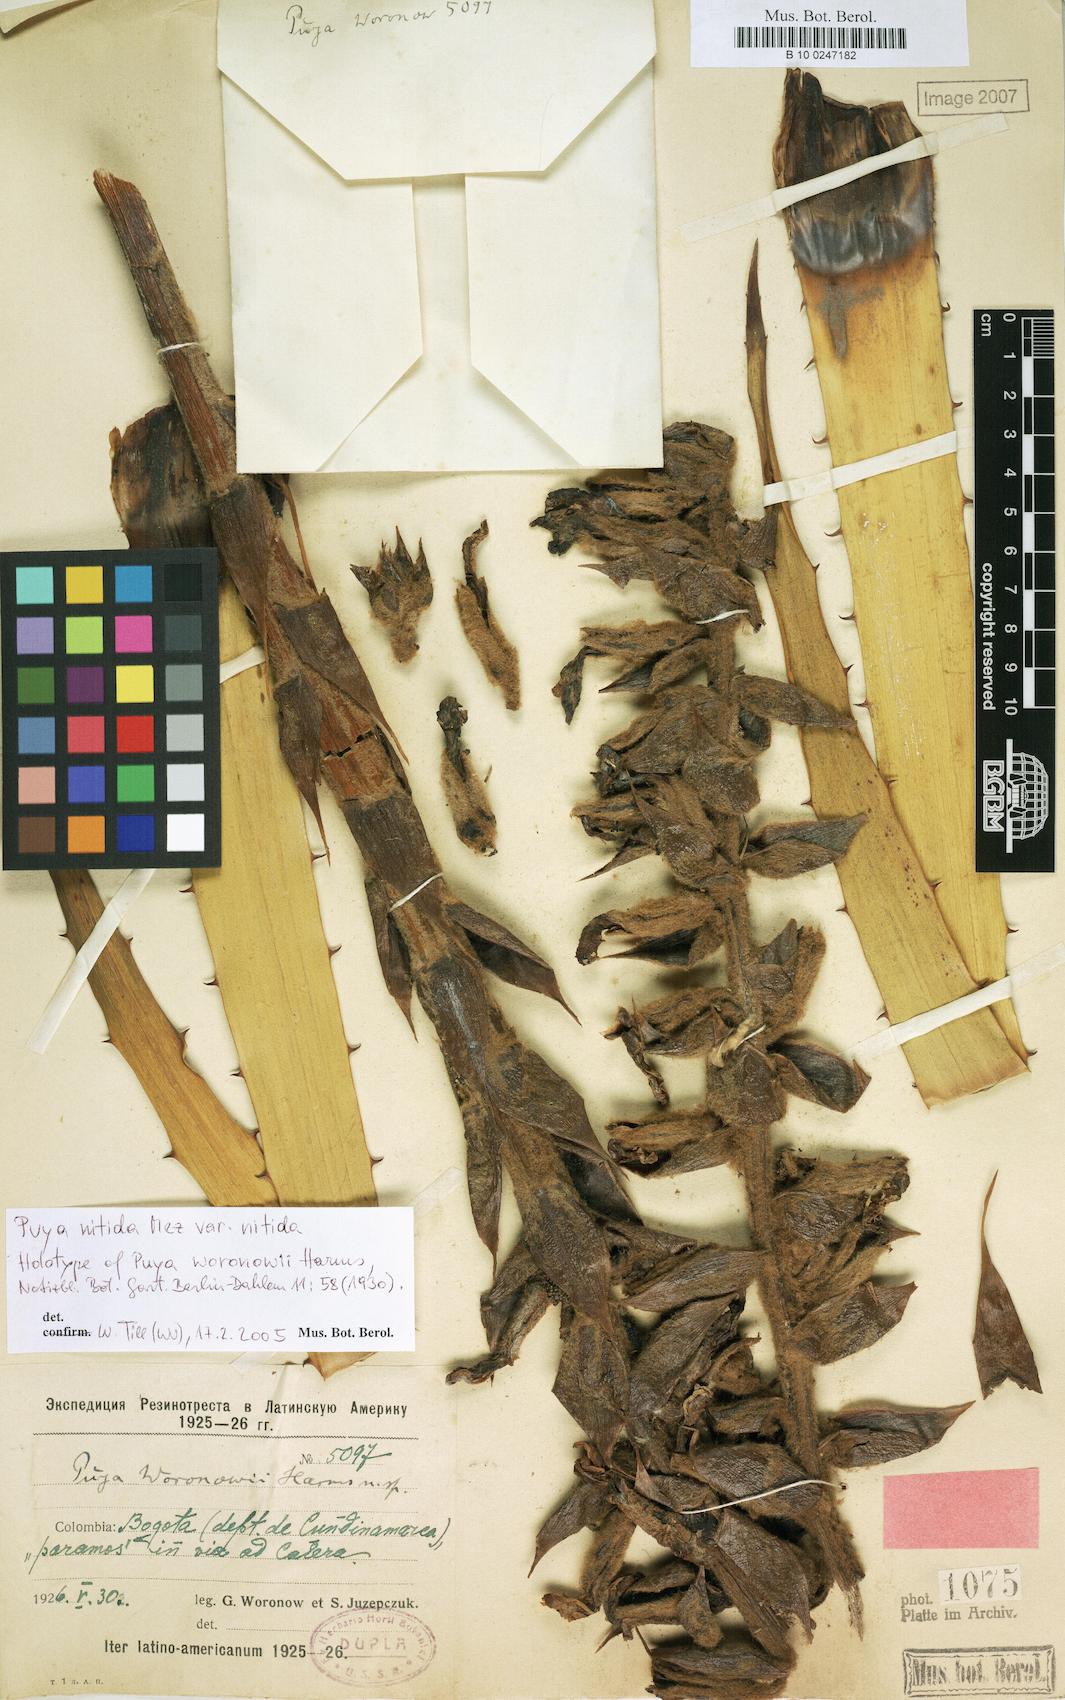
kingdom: Plantae
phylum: Tracheophyta
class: Liliopsida
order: Poales
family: Bromeliaceae
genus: Puya
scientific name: Puya nitida
